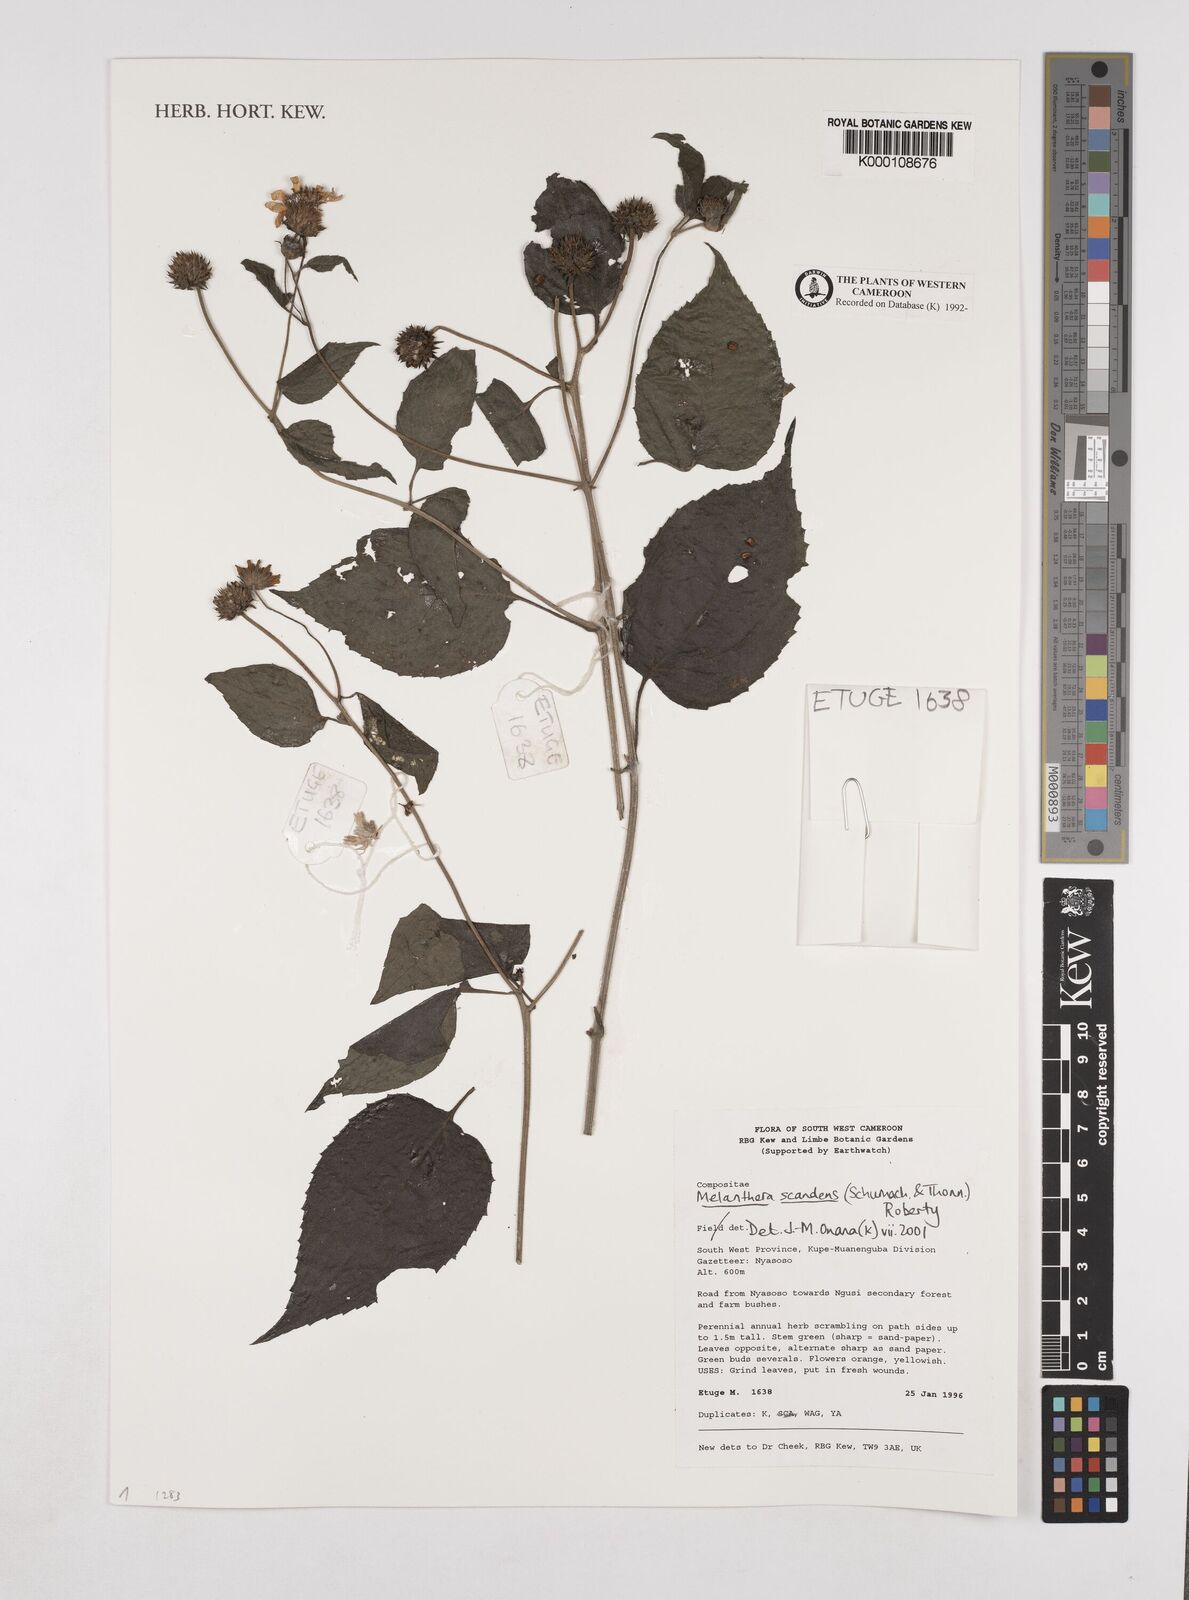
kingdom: Plantae
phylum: Tracheophyta
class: Magnoliopsida
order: Asterales
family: Asteraceae
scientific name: Asteraceae
